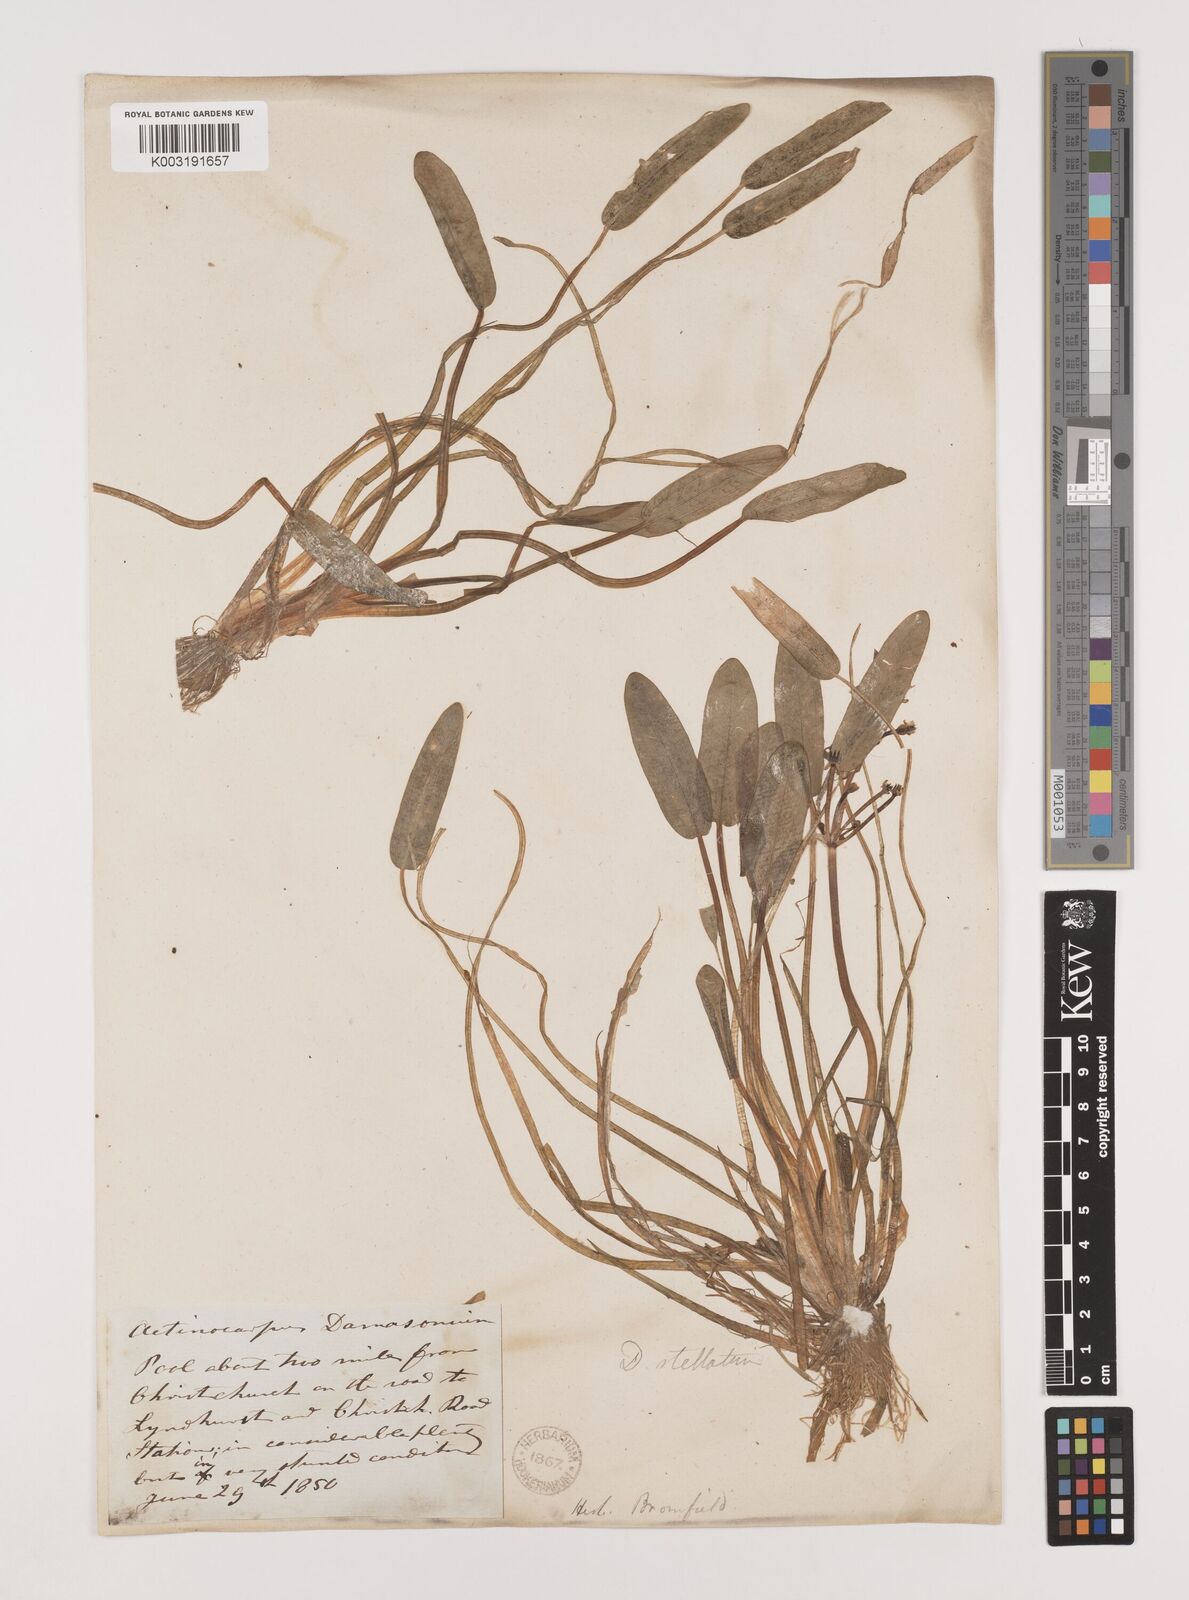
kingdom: Plantae
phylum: Tracheophyta
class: Liliopsida
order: Alismatales
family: Alismataceae
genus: Damasonium
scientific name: Damasonium alisma
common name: Starfruit
